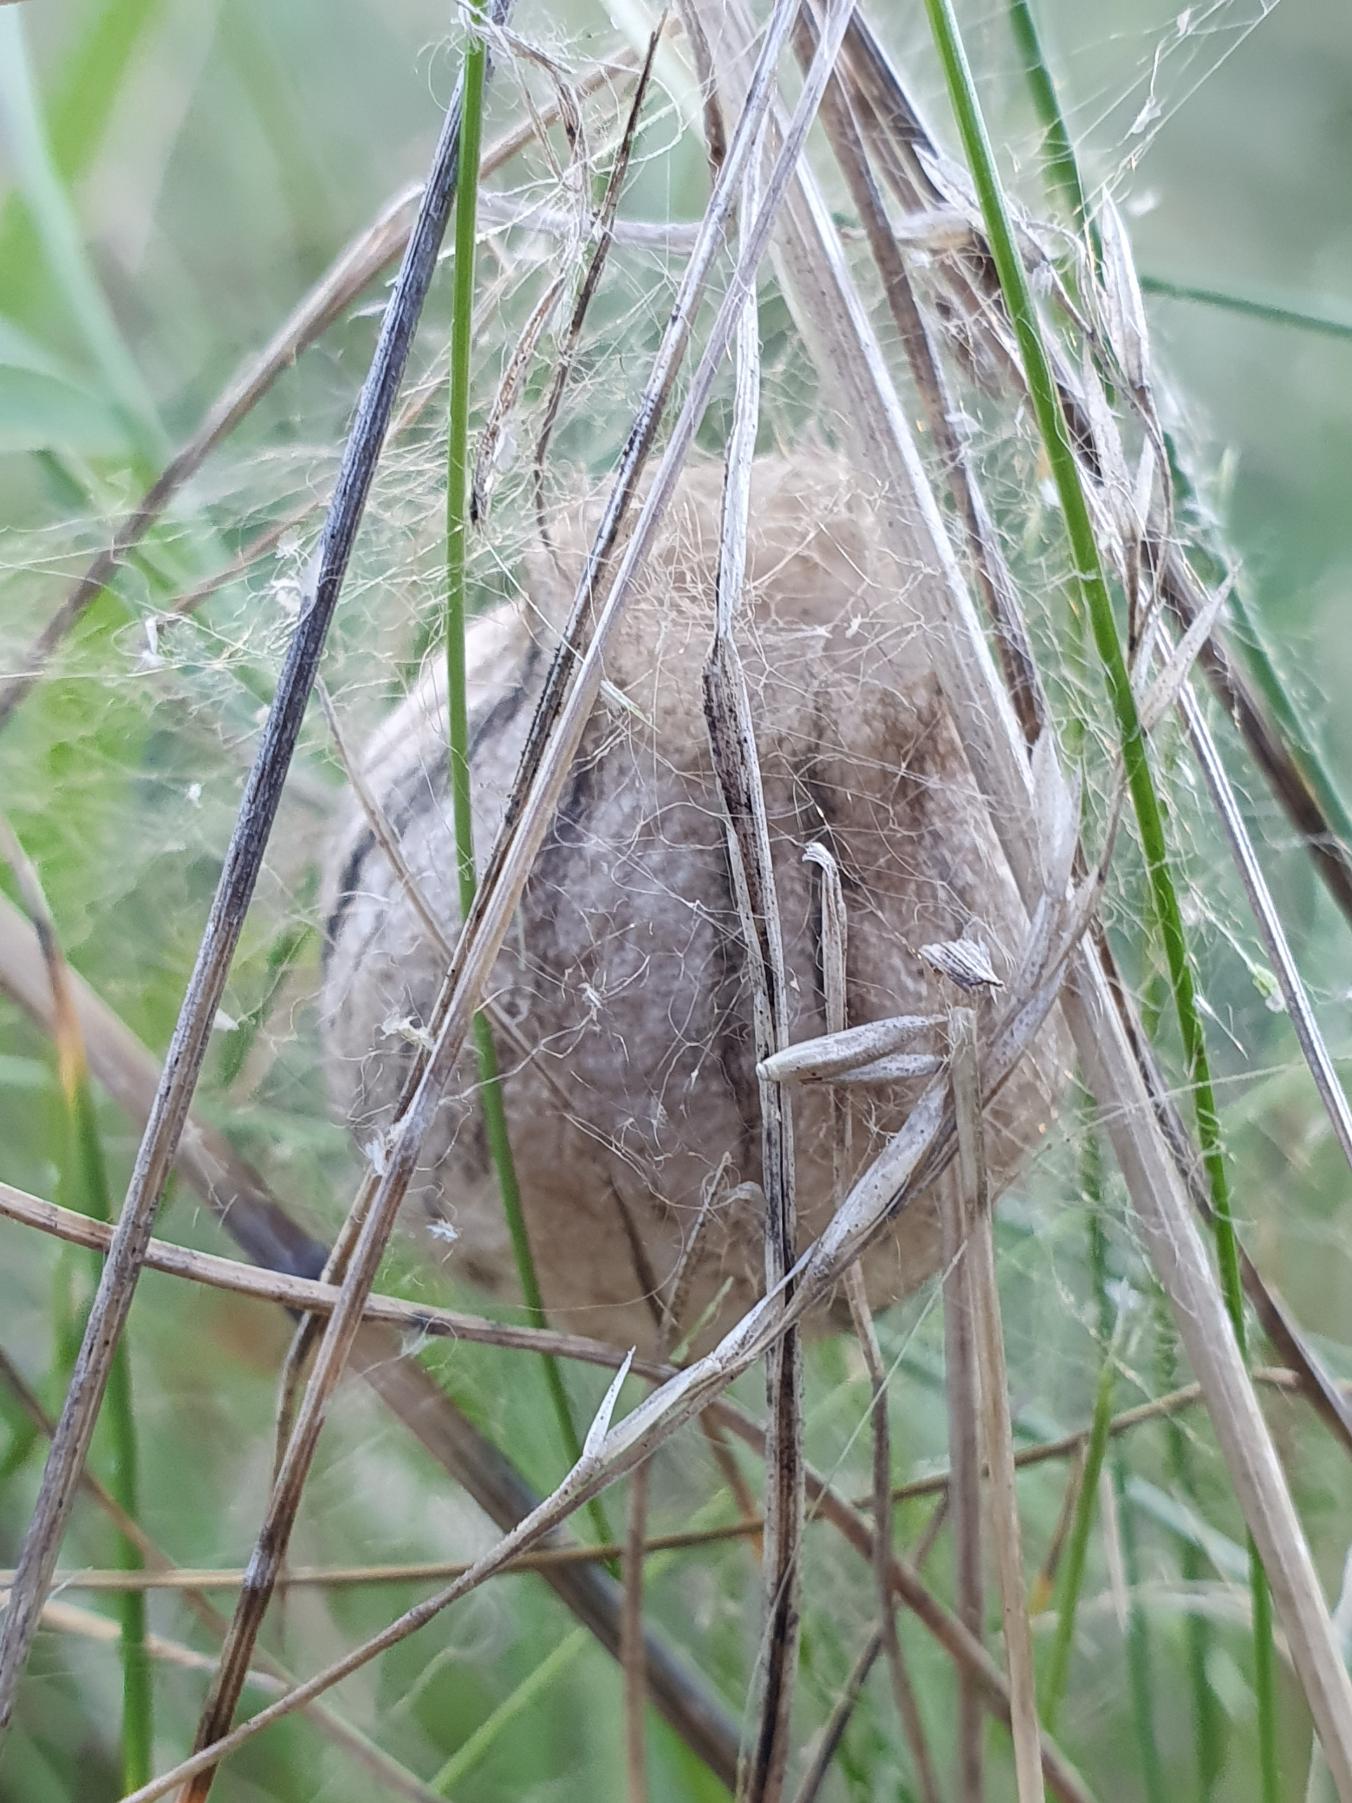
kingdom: Animalia
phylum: Arthropoda
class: Arachnida
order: Araneae
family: Araneidae
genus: Argiope
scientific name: Argiope bruennichi
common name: Hvepseedderkop
